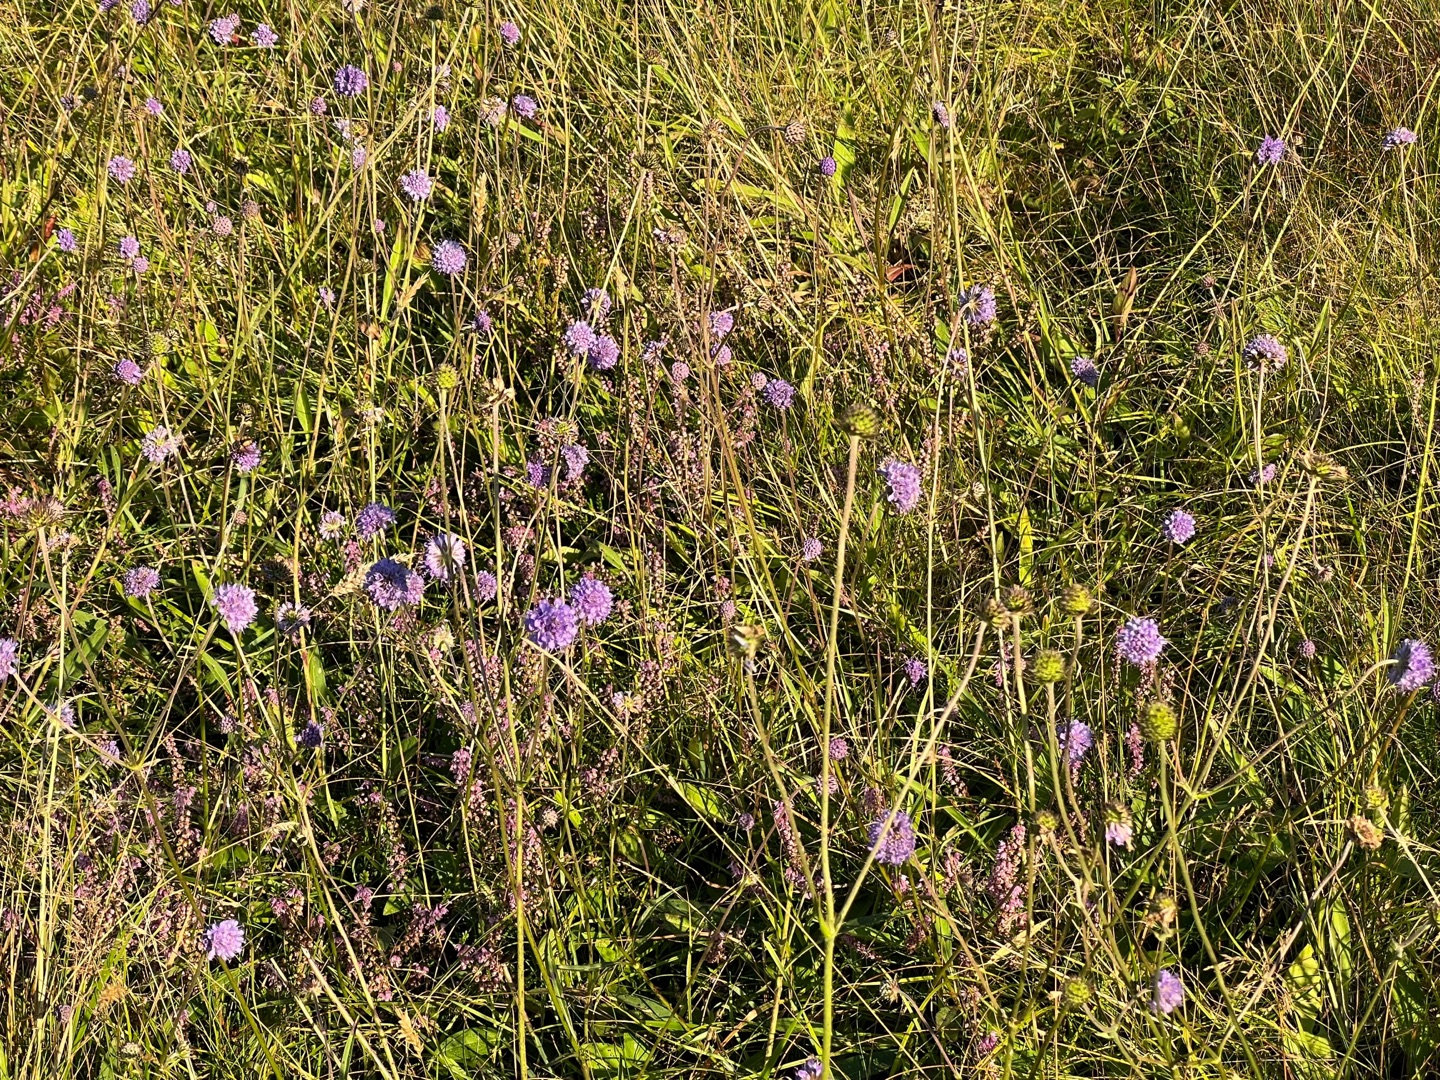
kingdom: Plantae
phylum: Tracheophyta
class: Magnoliopsida
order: Dipsacales
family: Caprifoliaceae
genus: Succisa
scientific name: Succisa pratensis
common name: Djævelsbid
